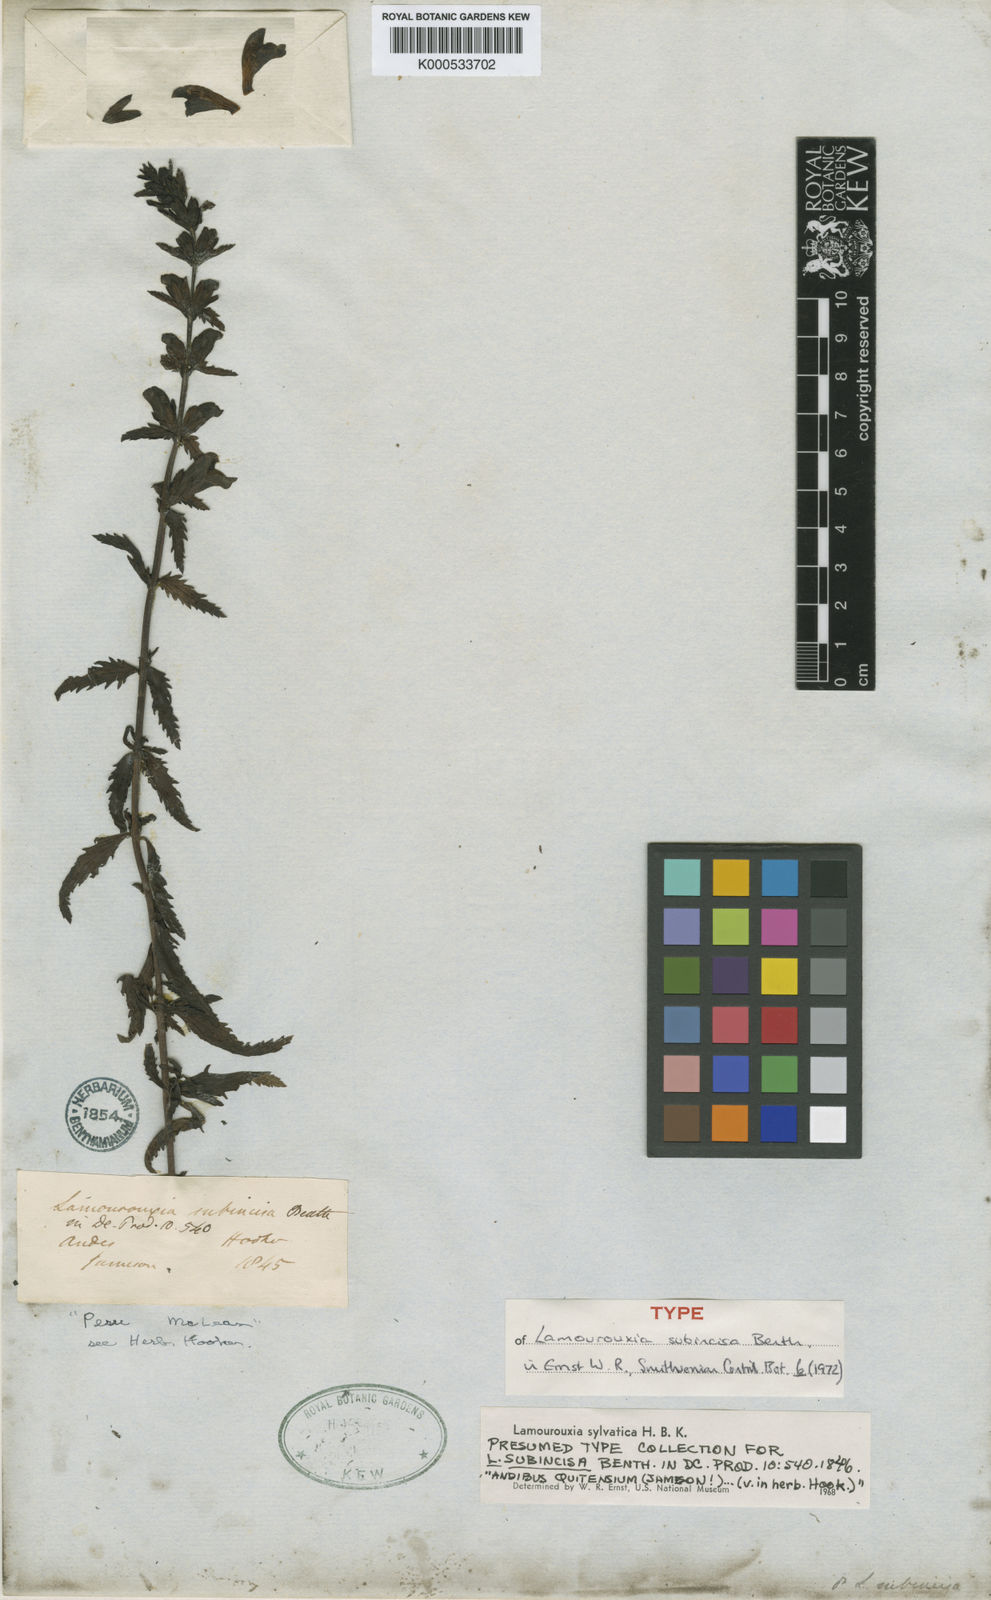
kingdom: Plantae
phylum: Tracheophyta
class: Magnoliopsida
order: Lamiales
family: Orobanchaceae
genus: Lamourouxia
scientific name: Lamourouxia sylvatica
